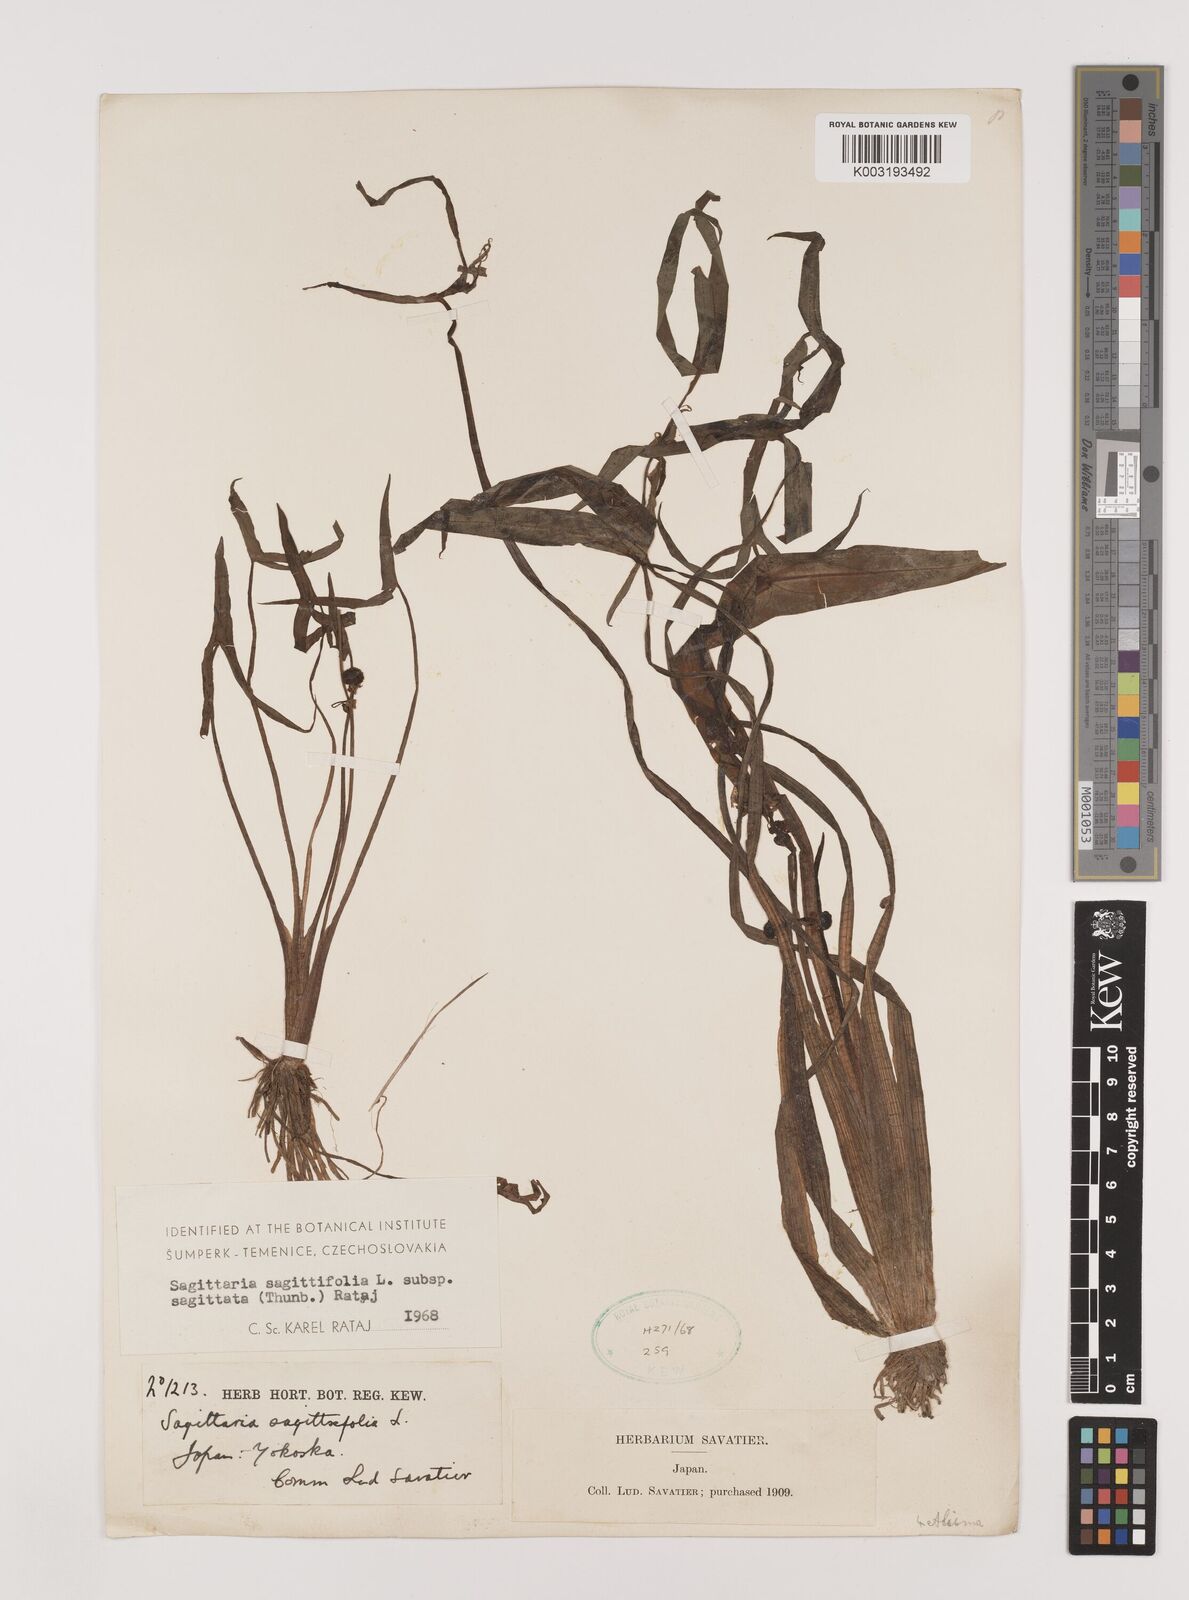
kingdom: Plantae
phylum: Tracheophyta
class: Liliopsida
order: Alismatales
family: Alismataceae
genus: Sagittaria
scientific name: Sagittaria sagittifolia
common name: Arrowhead
